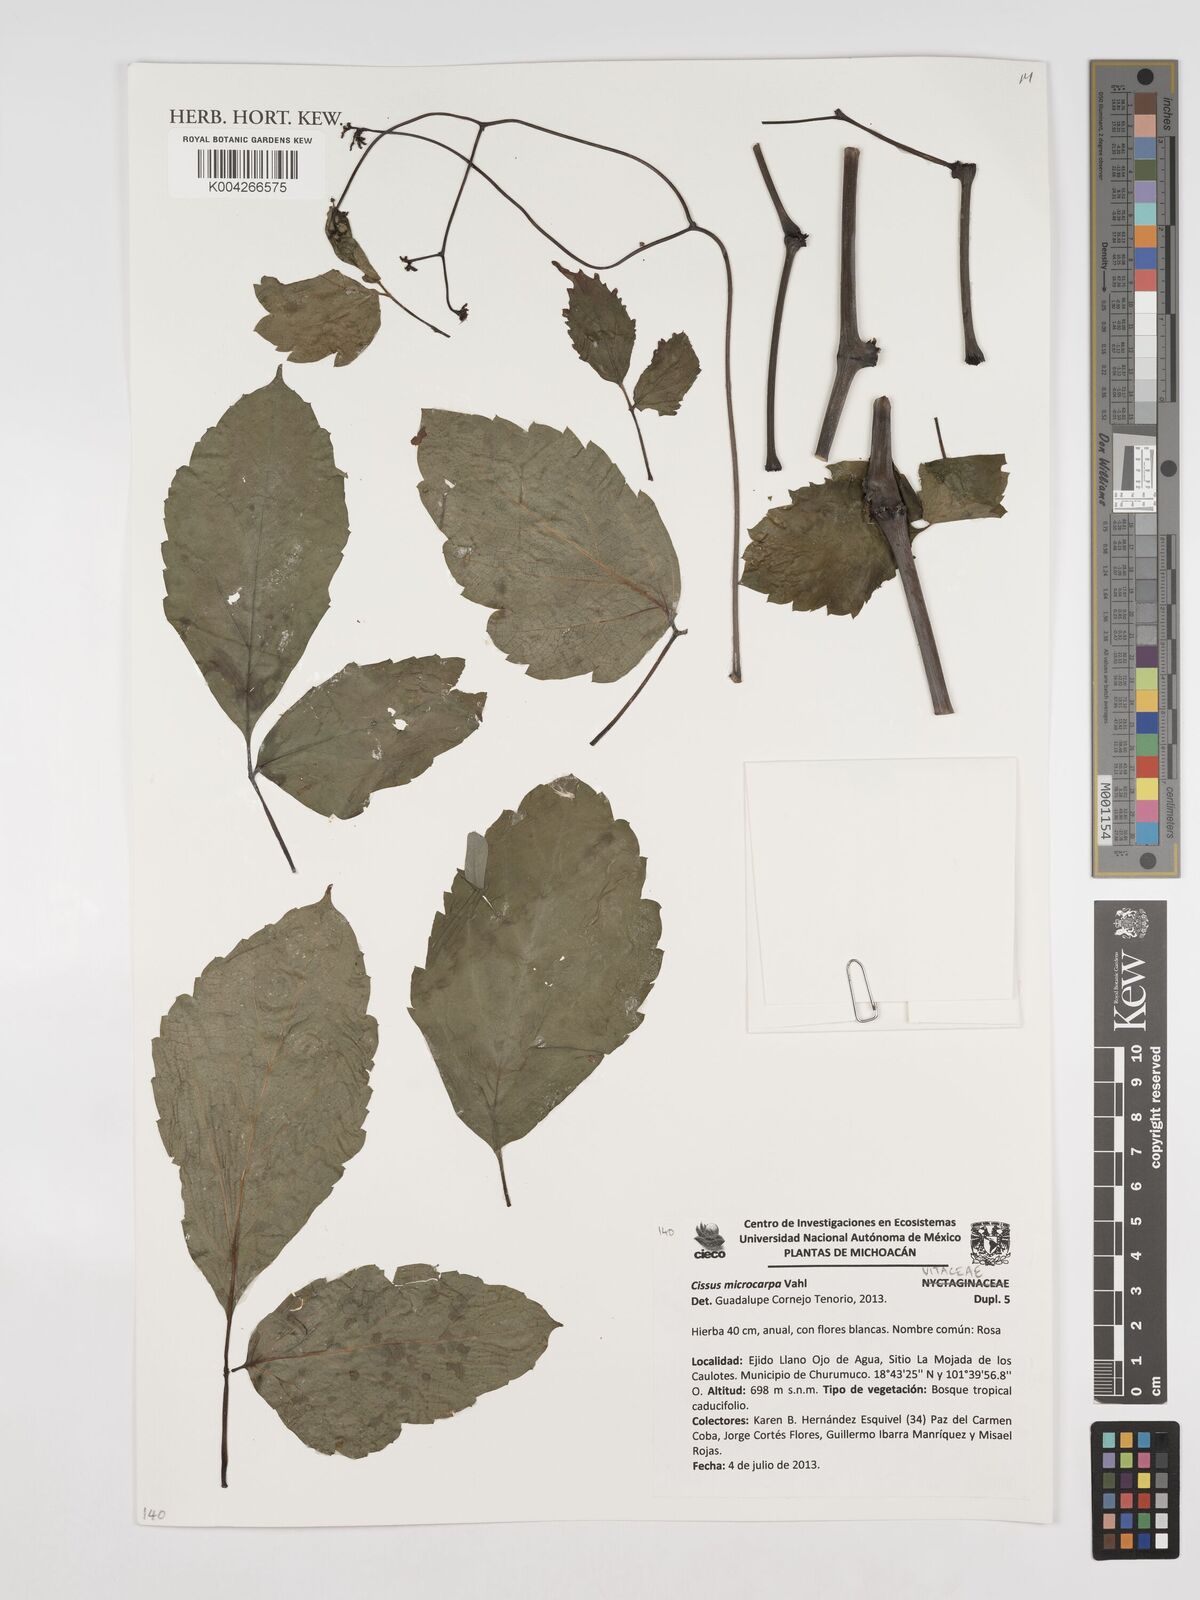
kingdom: Plantae
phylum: Tracheophyta
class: Magnoliopsida
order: Vitales
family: Vitaceae
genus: Cissus
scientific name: Cissus microcarpa
